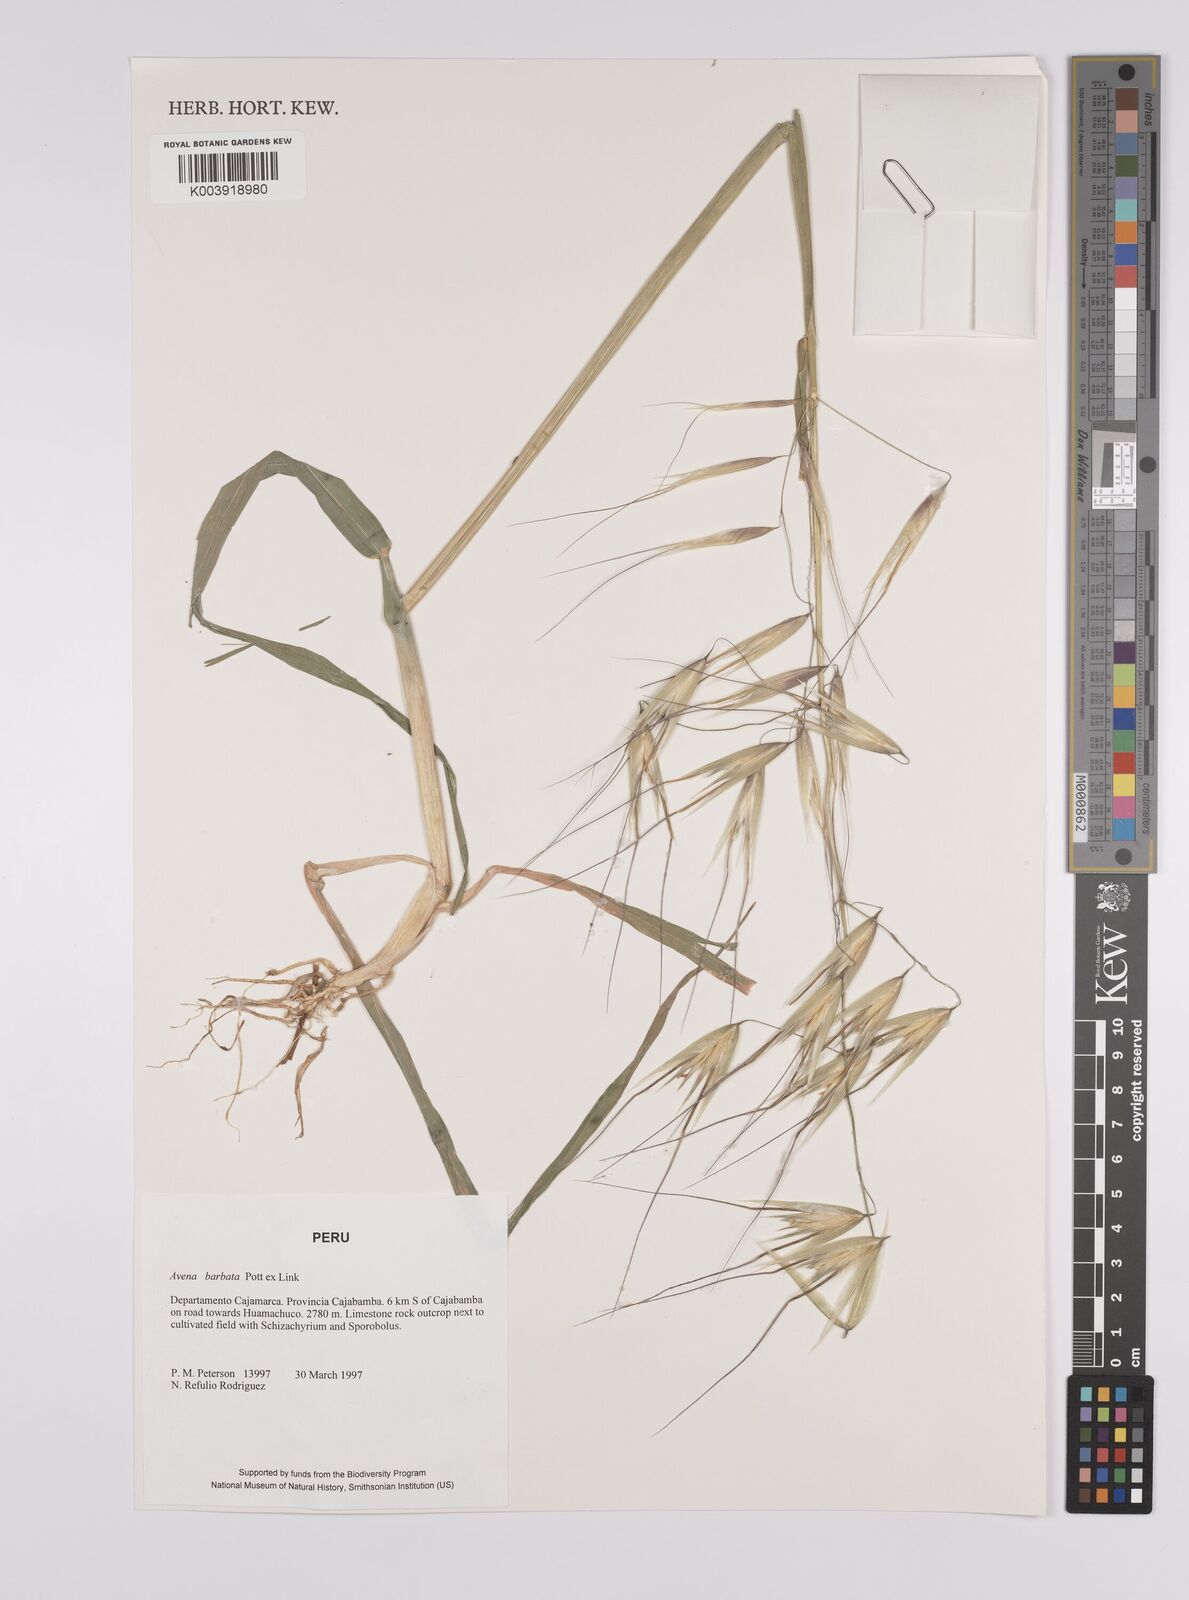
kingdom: Plantae
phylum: Tracheophyta
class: Liliopsida
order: Poales
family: Poaceae
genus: Avena
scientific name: Avena barbata
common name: Slender oat
